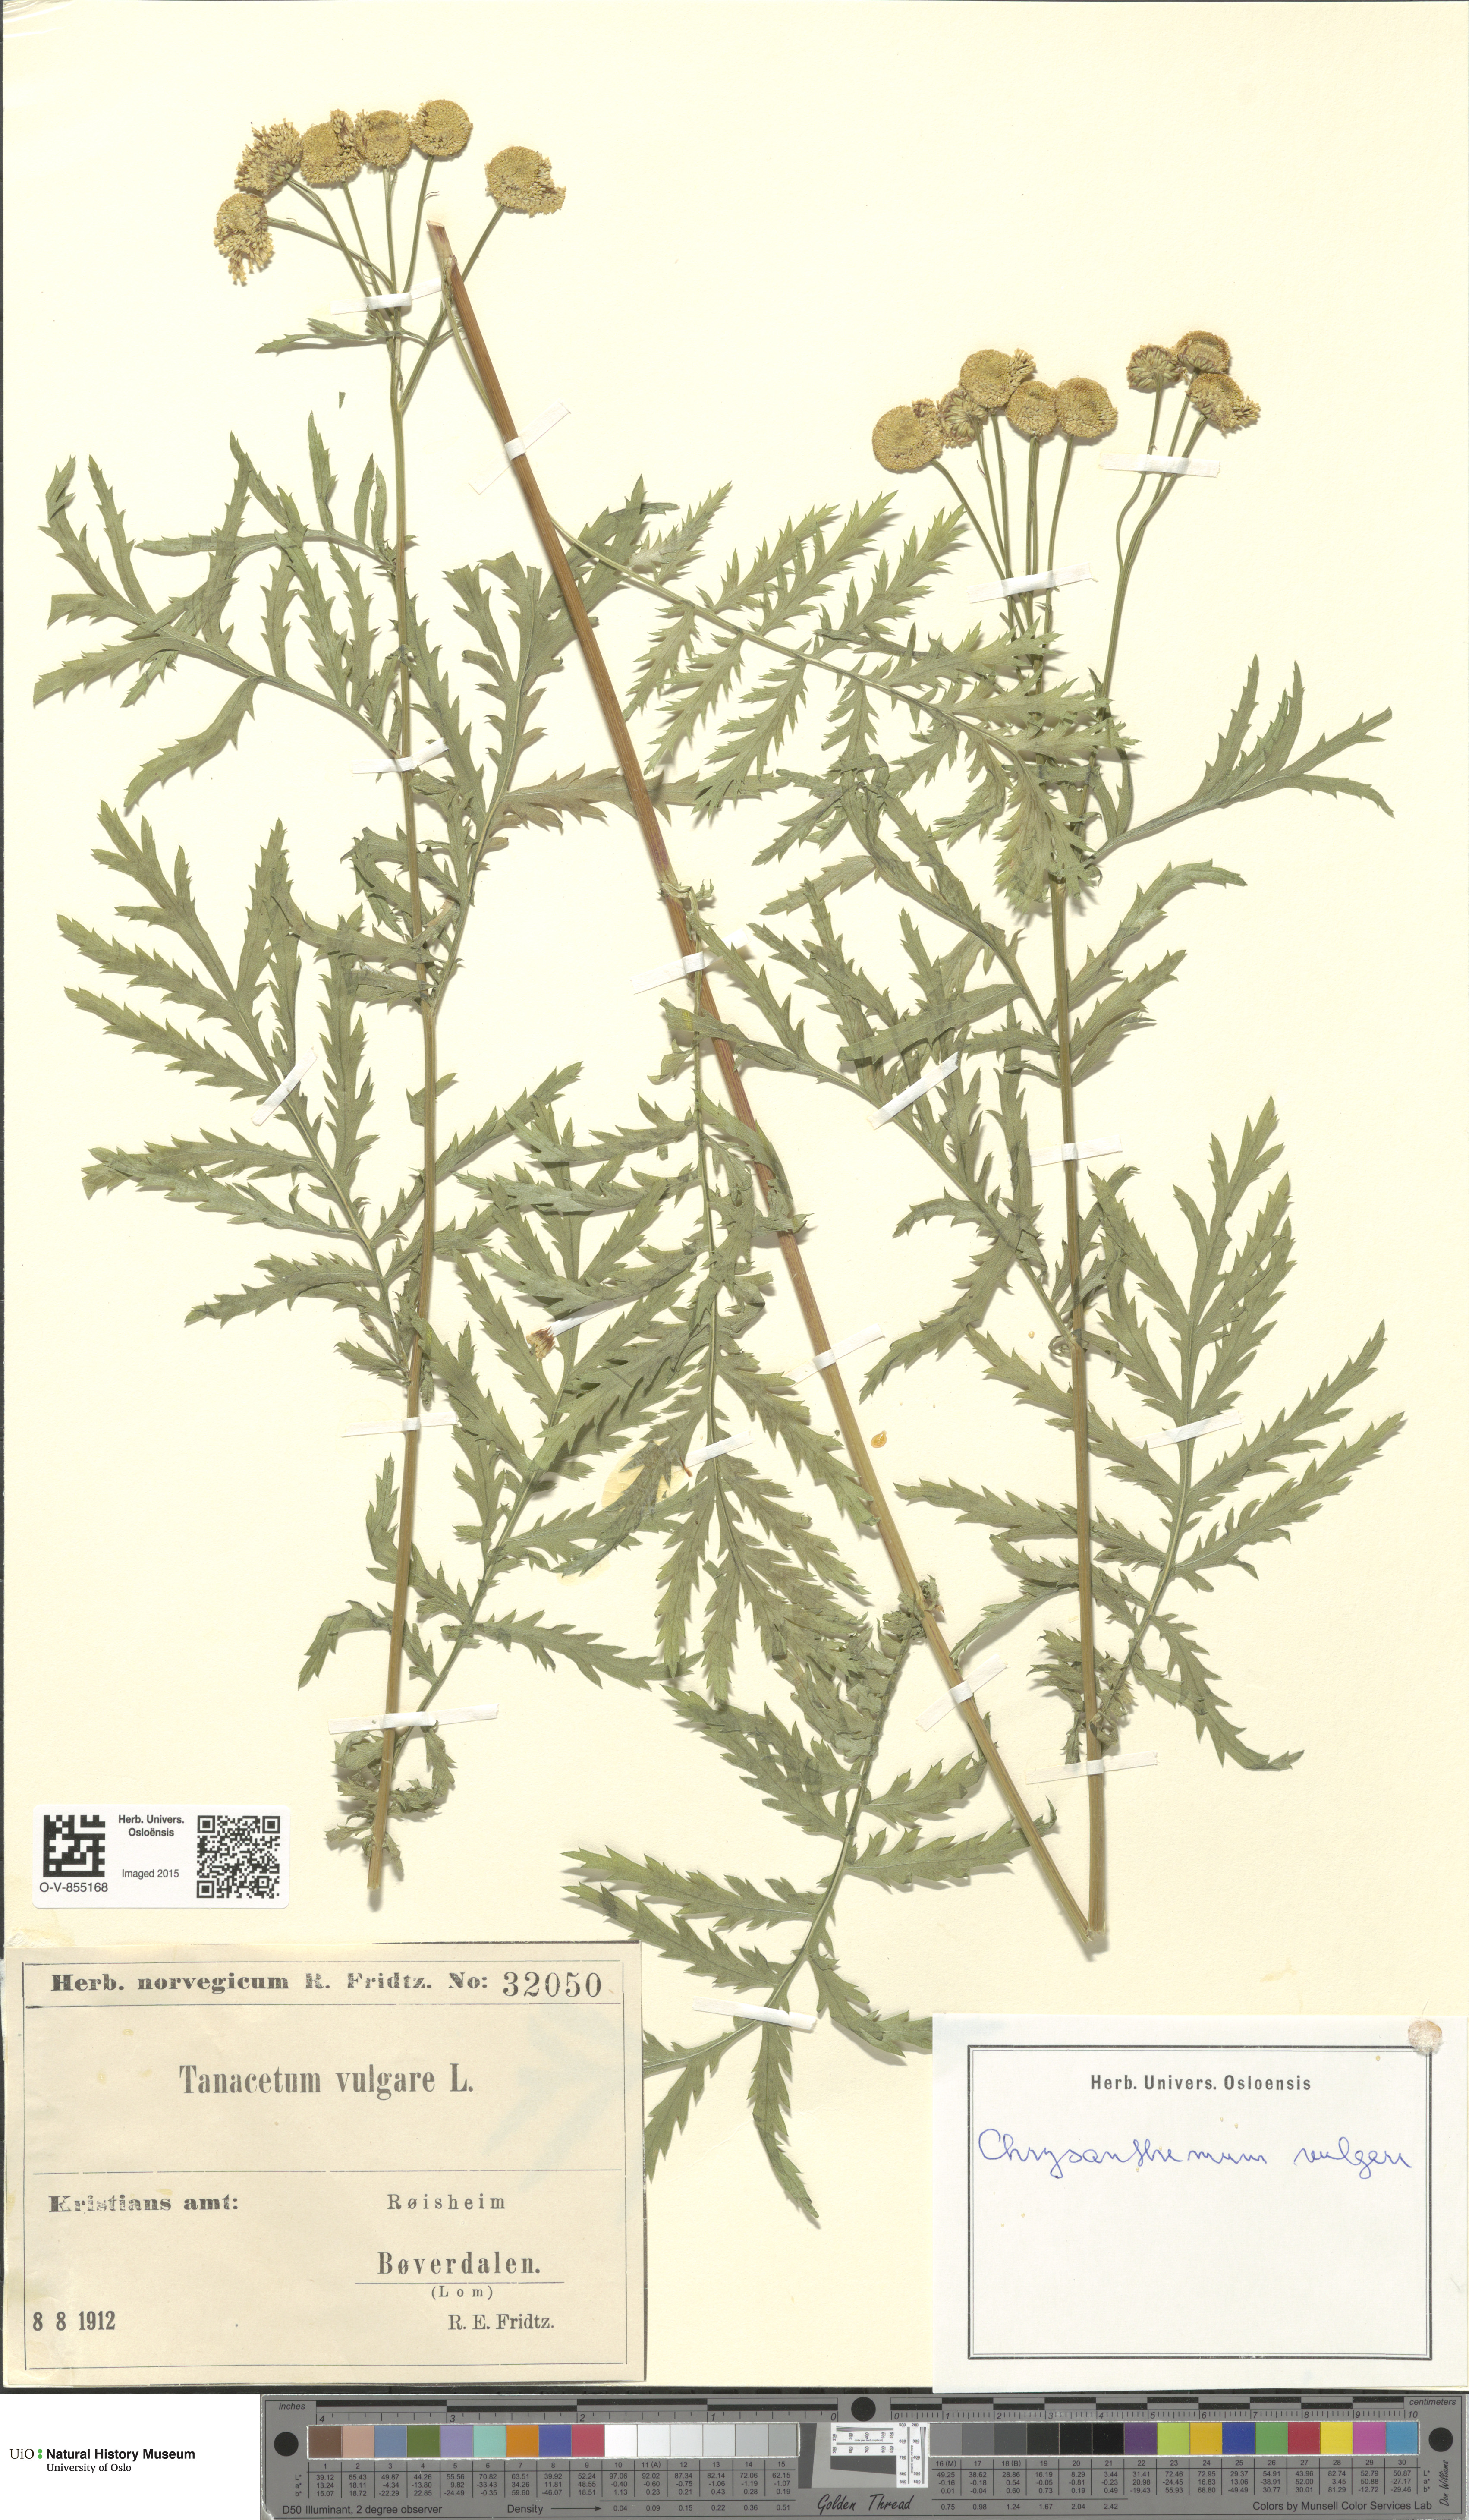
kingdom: Plantae
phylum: Tracheophyta
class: Magnoliopsida
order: Asterales
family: Asteraceae
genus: Tanacetum
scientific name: Tanacetum vulgare
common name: Common tansy
